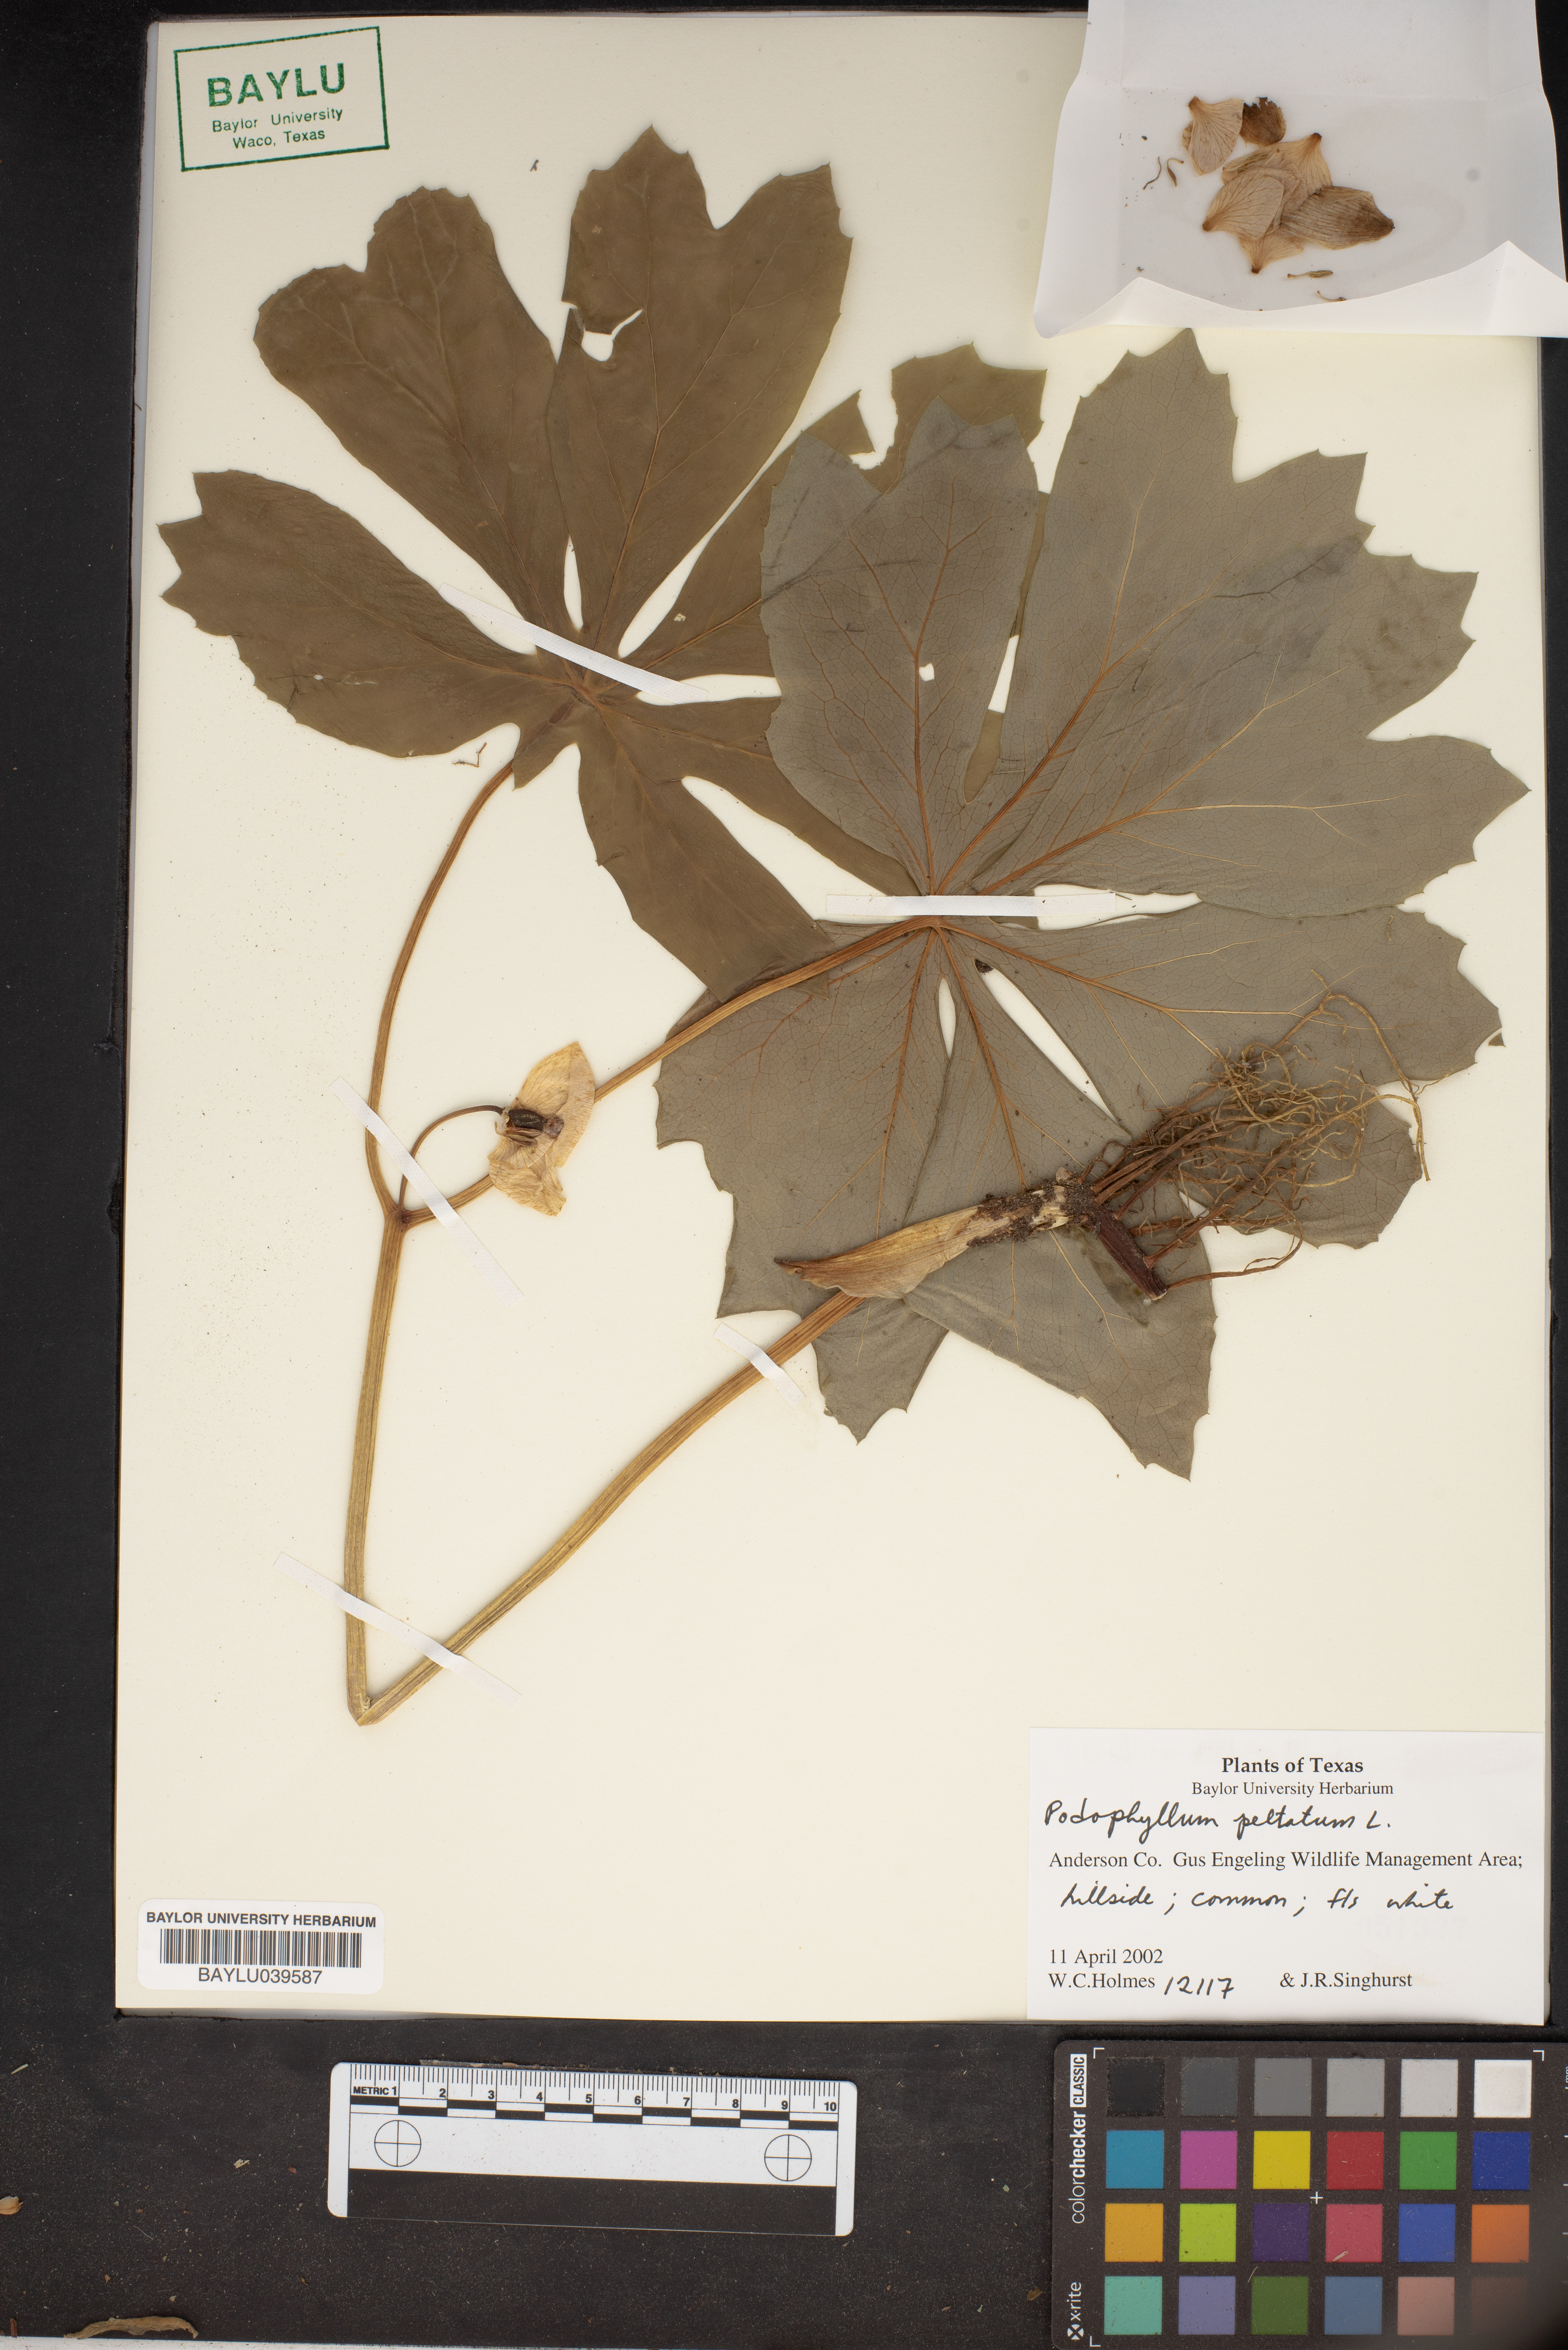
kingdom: Plantae
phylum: Tracheophyta
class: Magnoliopsida
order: Ranunculales
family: Berberidaceae
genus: Podophyllum
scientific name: Podophyllum peltatum
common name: Wild mandrake
